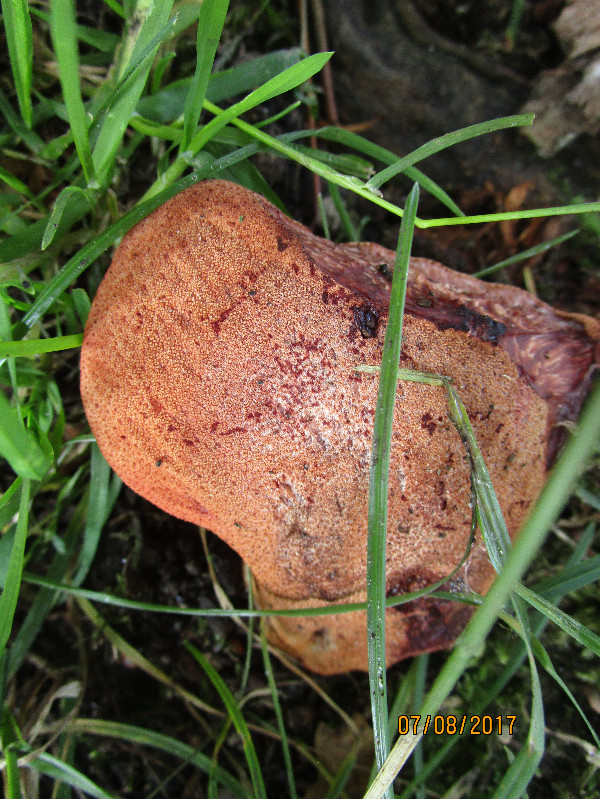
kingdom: Fungi
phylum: Basidiomycota
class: Agaricomycetes
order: Agaricales
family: Fistulinaceae
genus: Fistulina
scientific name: Fistulina hepatica
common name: oksetunge
